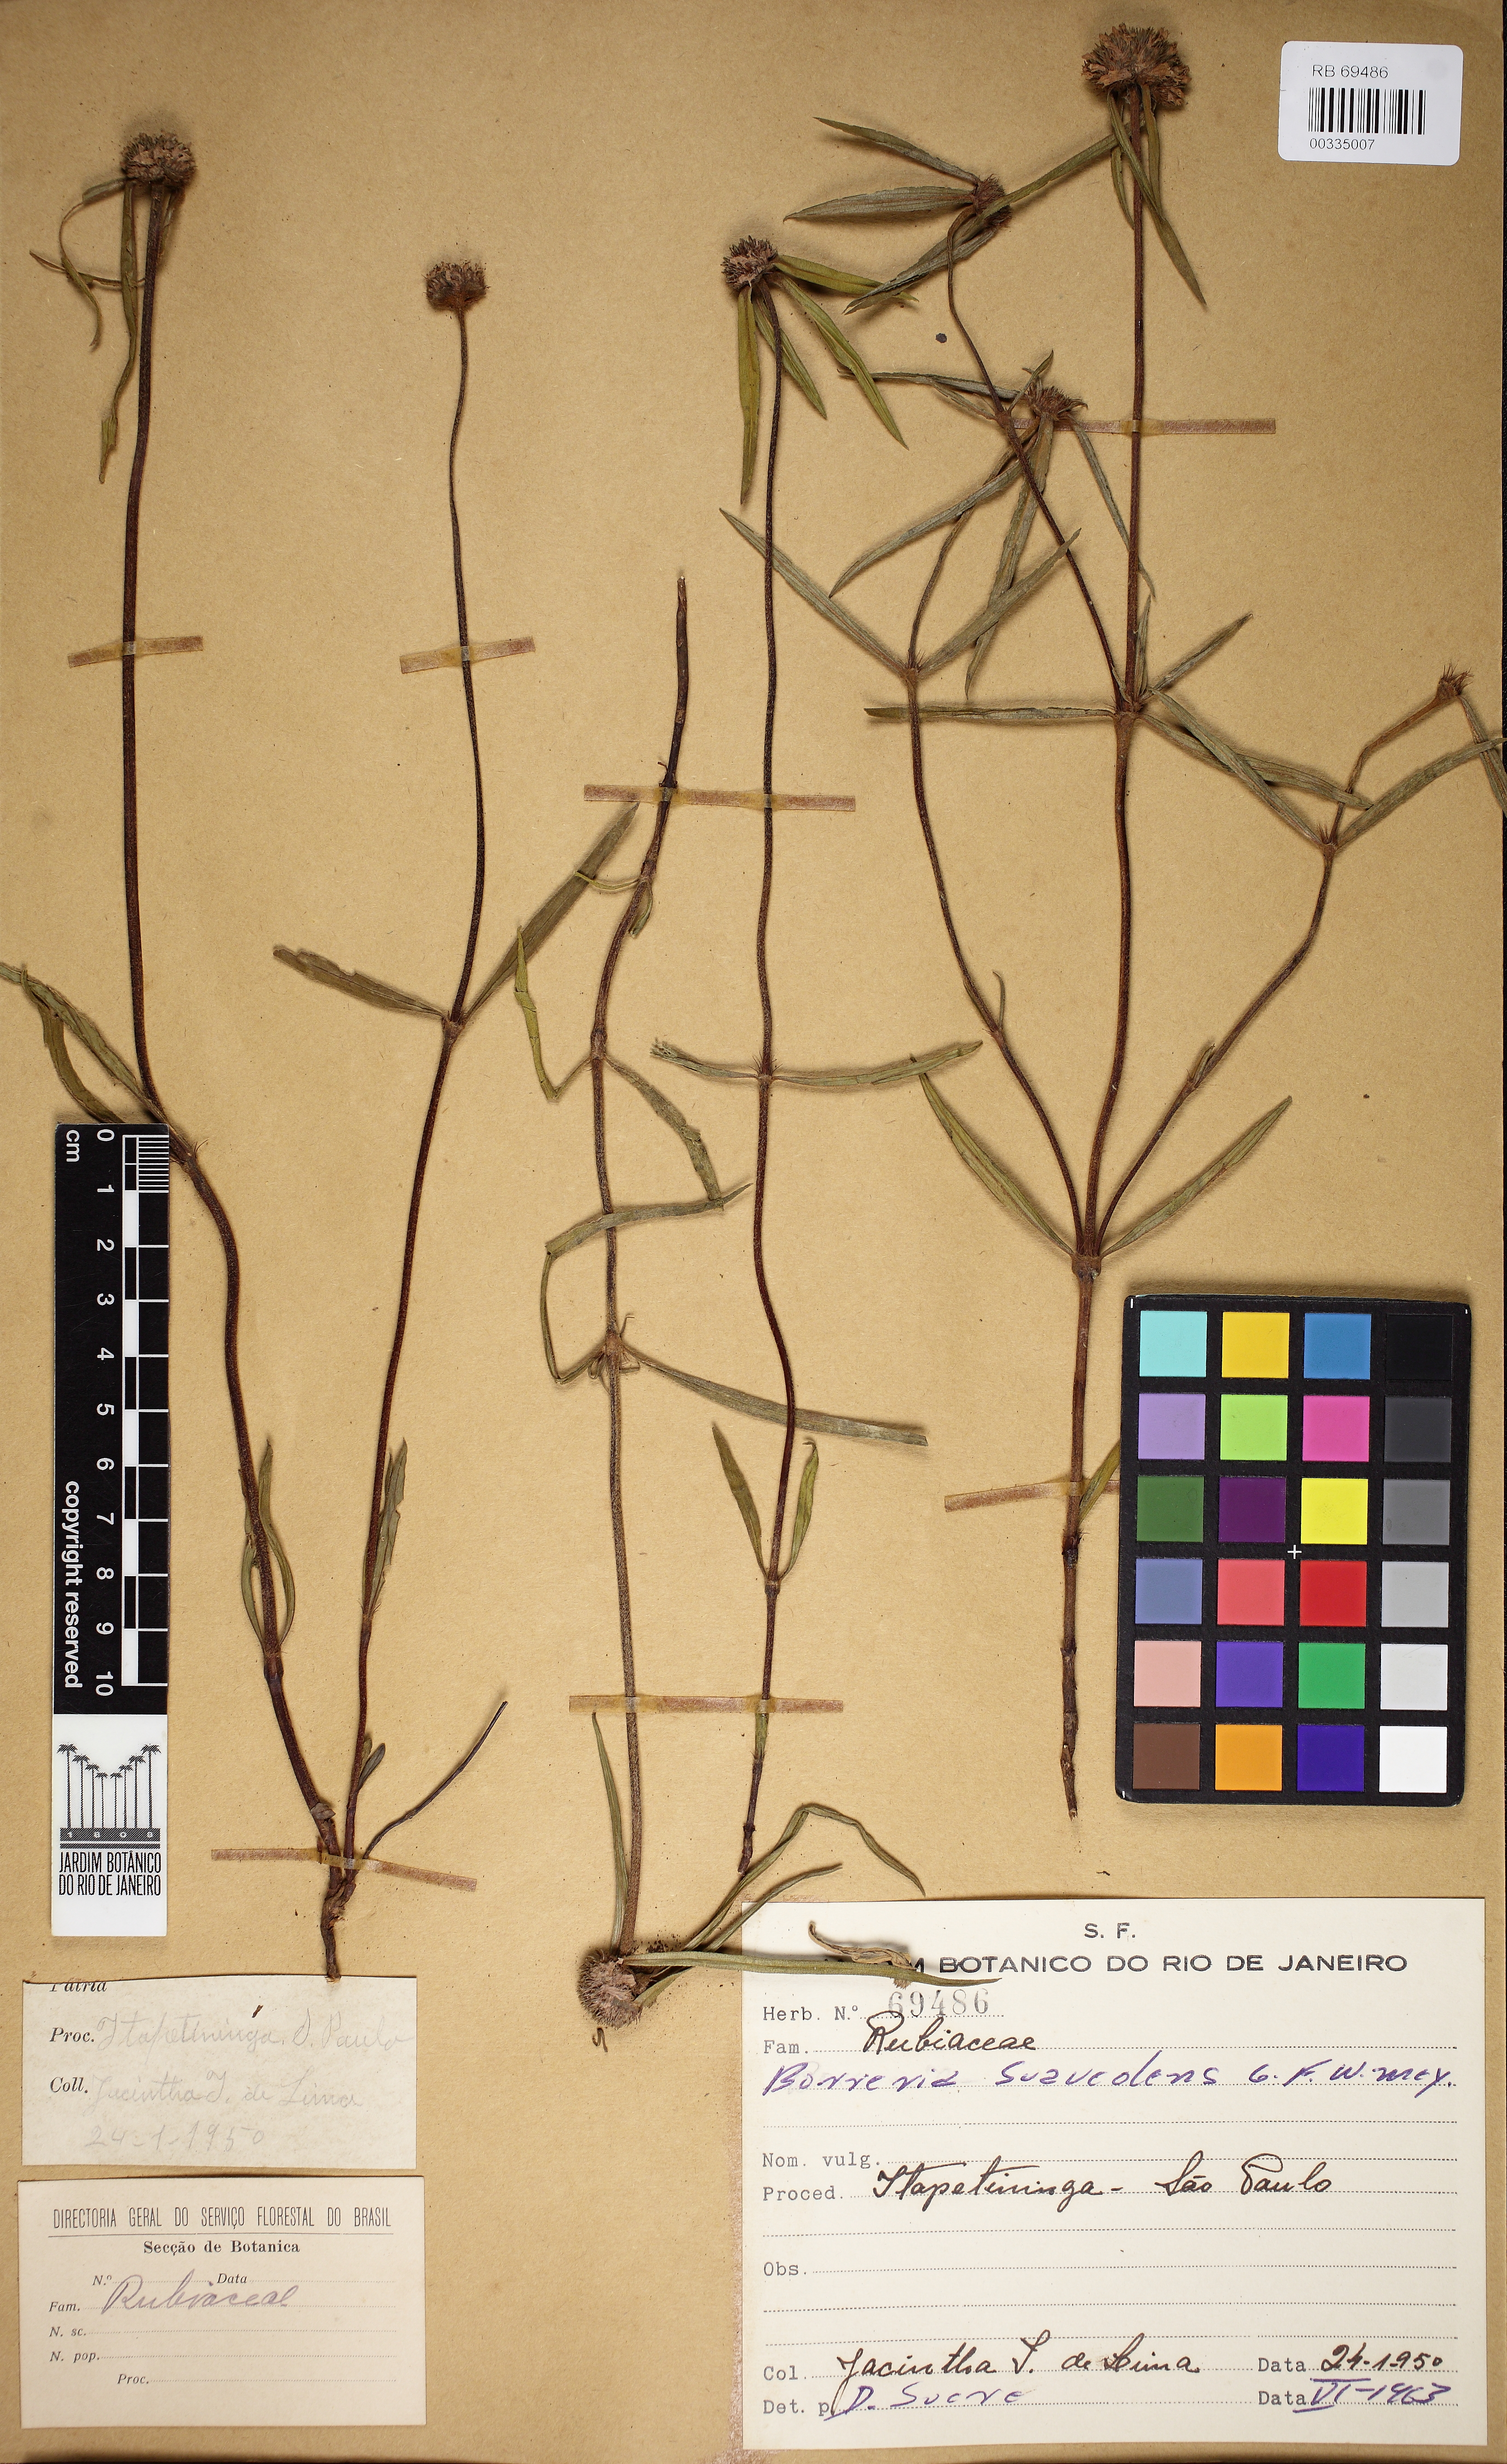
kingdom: Plantae
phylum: Tracheophyta
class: Magnoliopsida
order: Gentianales
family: Rubiaceae
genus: Spermacoce
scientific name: Spermacoce orinocensis
